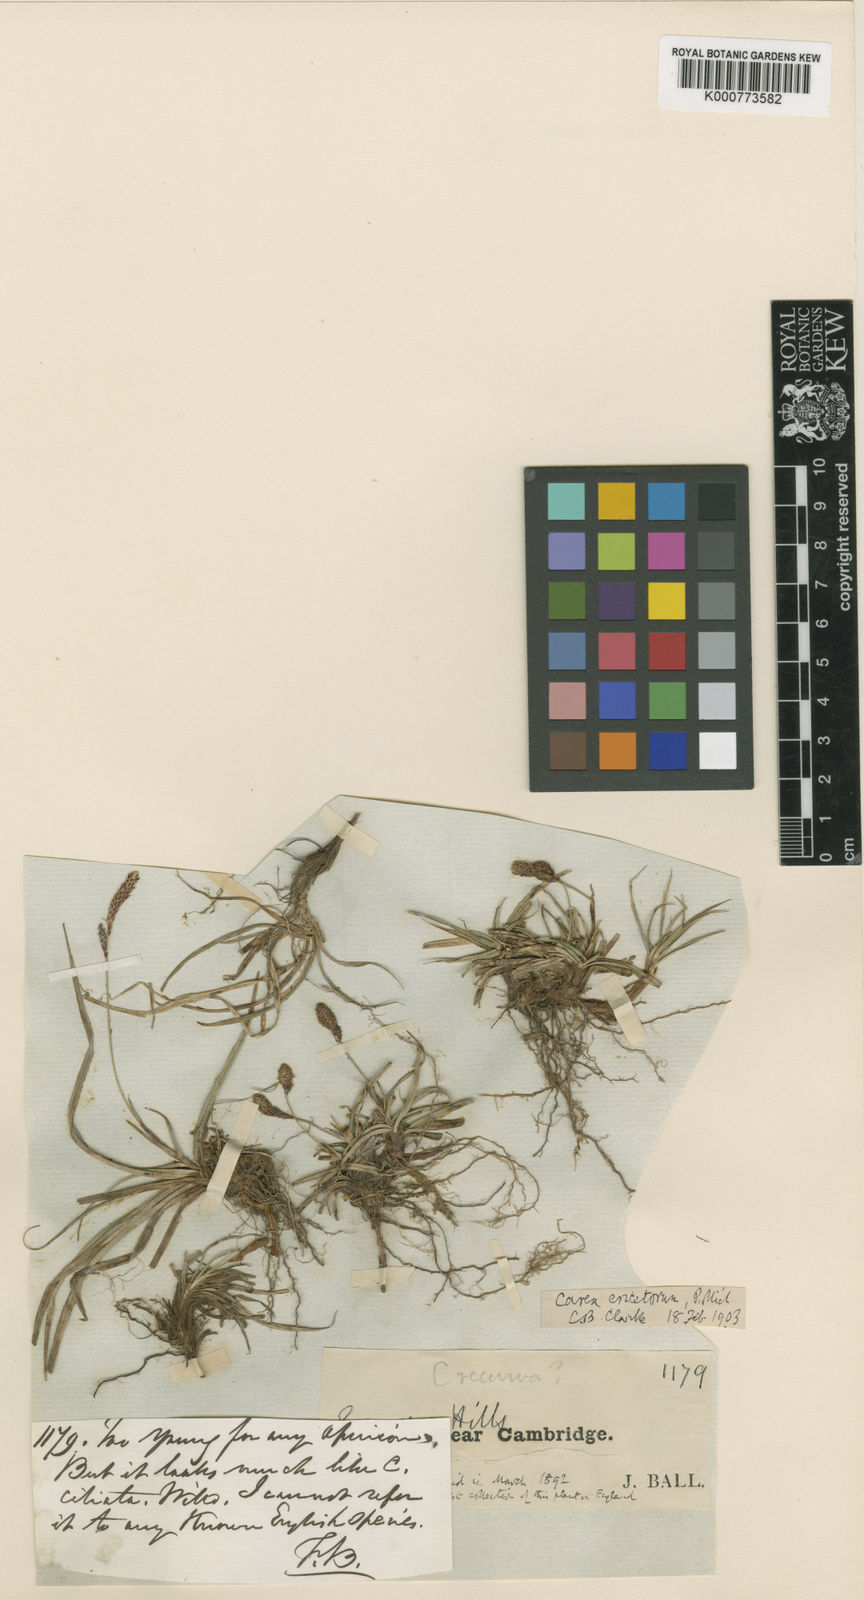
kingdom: Plantae
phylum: Tracheophyta
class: Liliopsida
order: Poales
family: Cyperaceae
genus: Carex
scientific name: Carex ericetorum
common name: Rare spring-sedge
